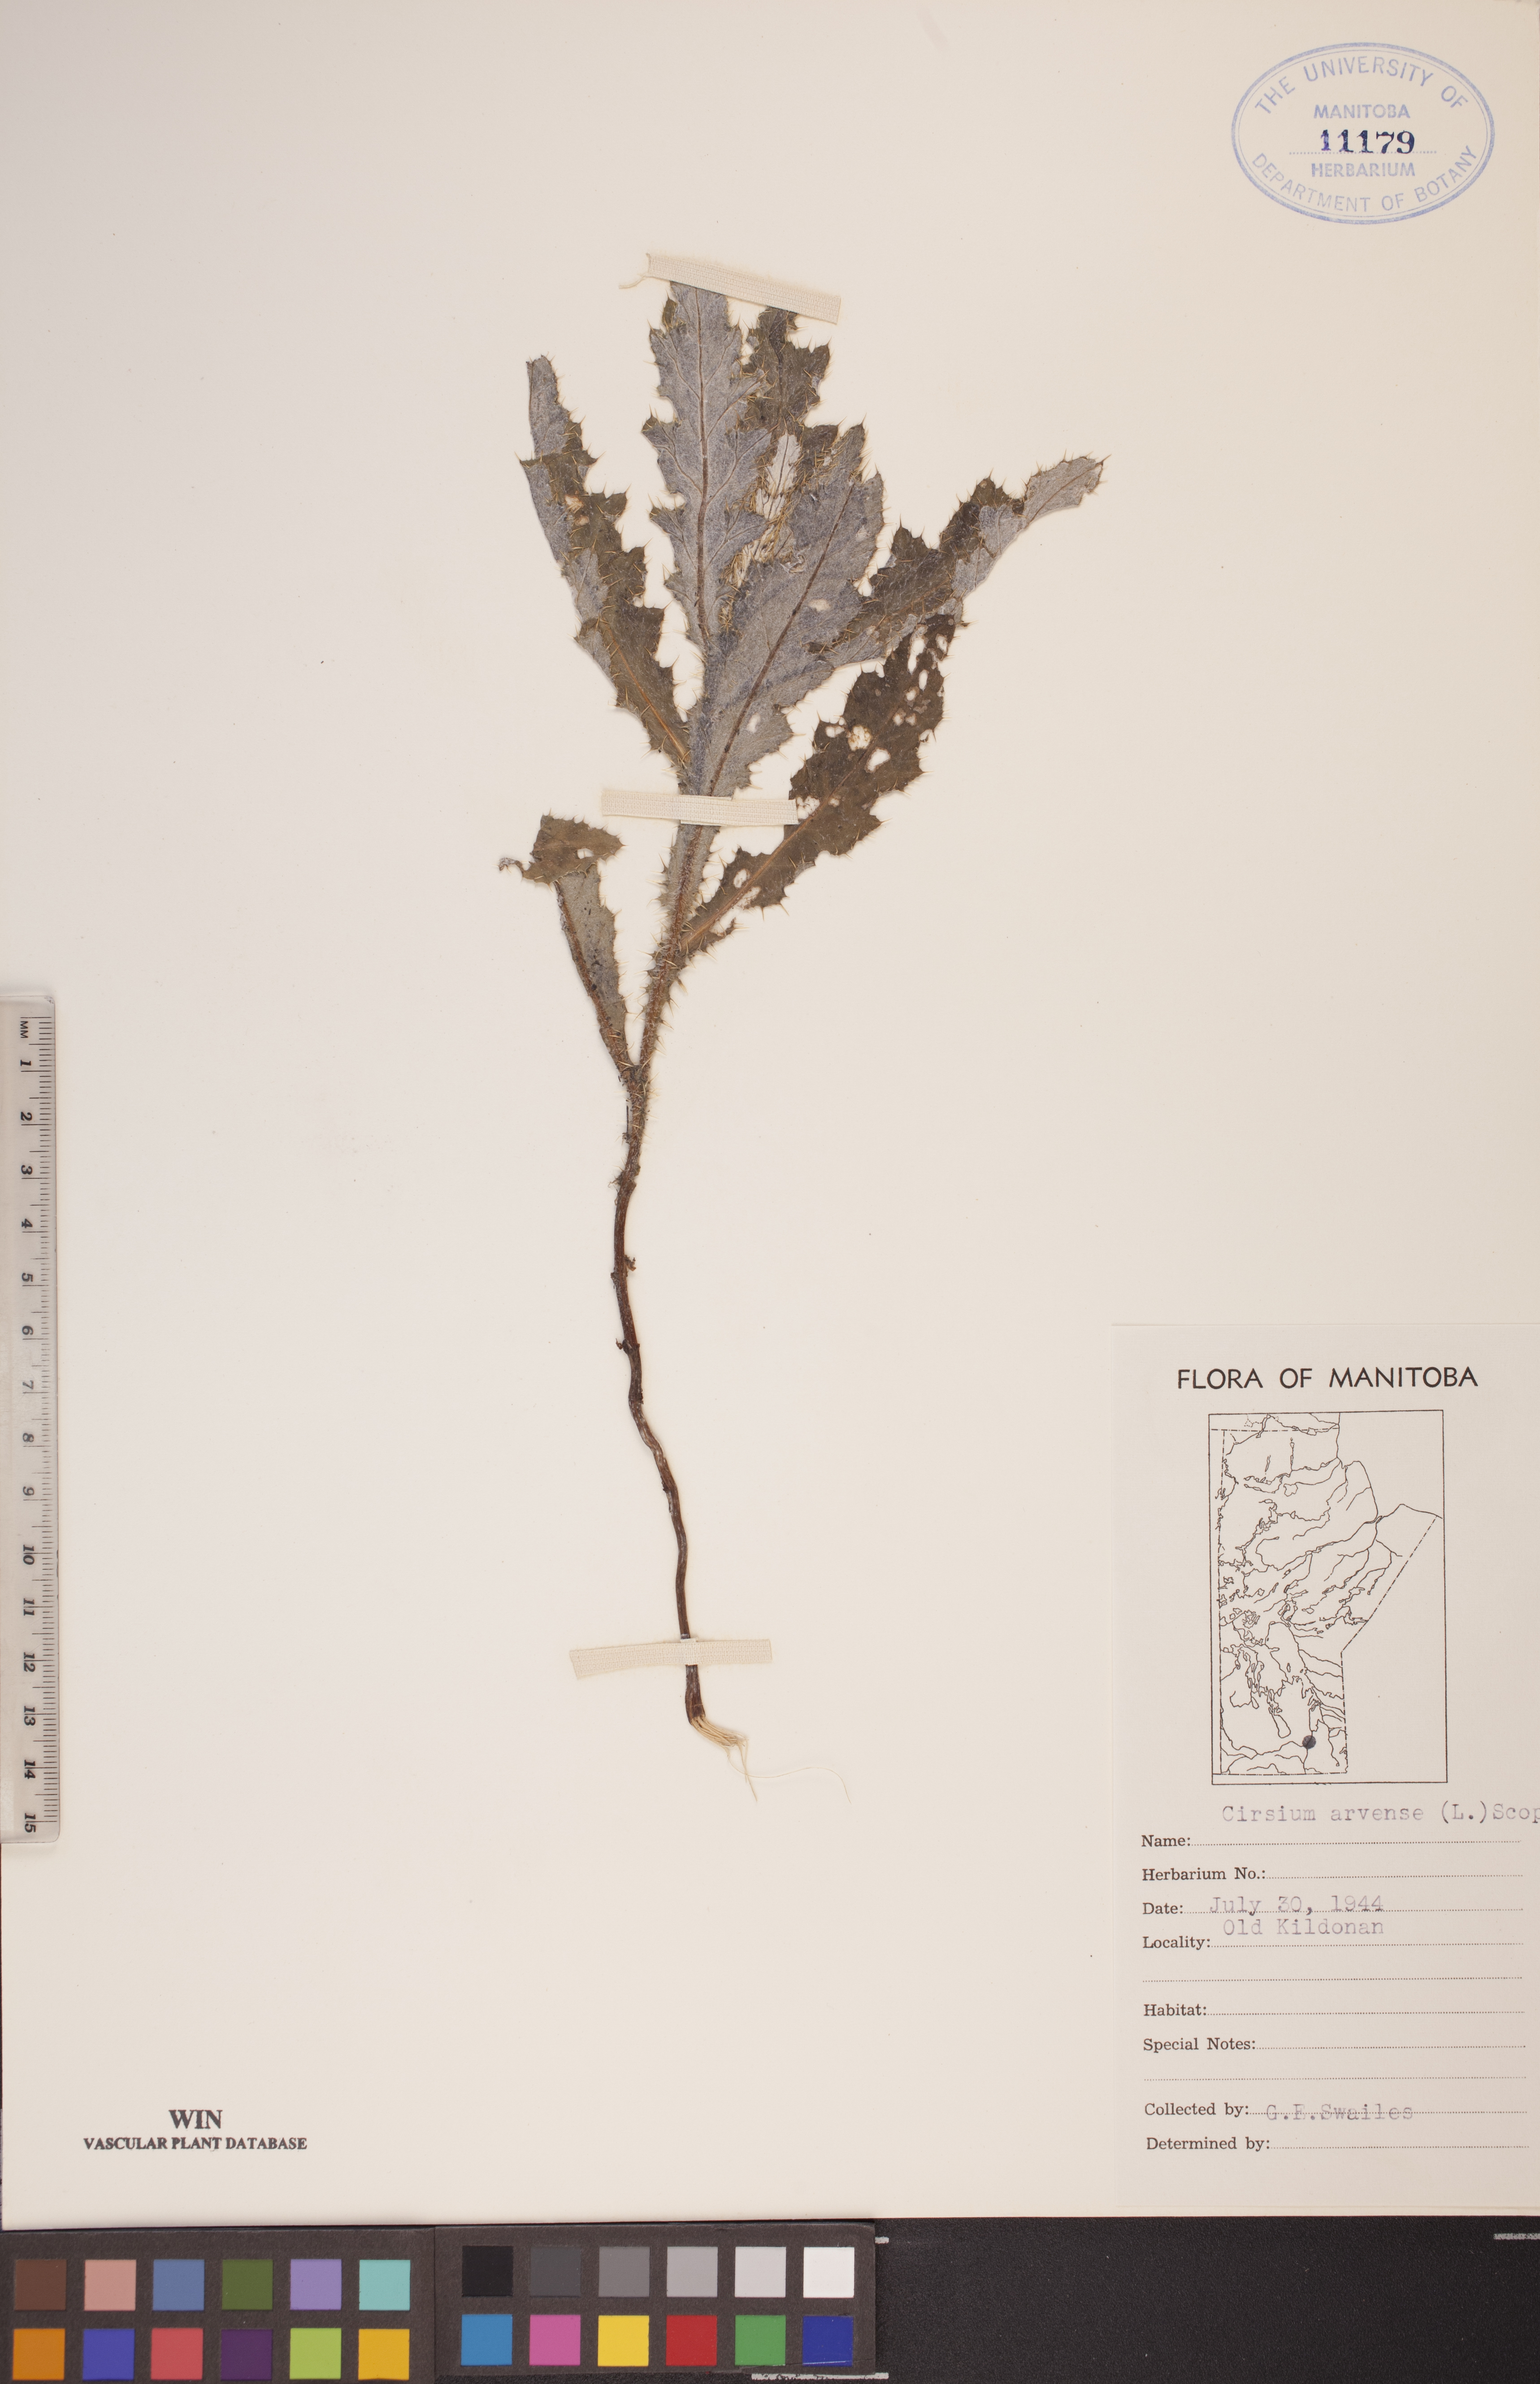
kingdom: Plantae
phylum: Tracheophyta
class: Magnoliopsida
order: Asterales
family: Asteraceae
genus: Cirsium
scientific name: Cirsium arvense
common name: Creeping thistle
